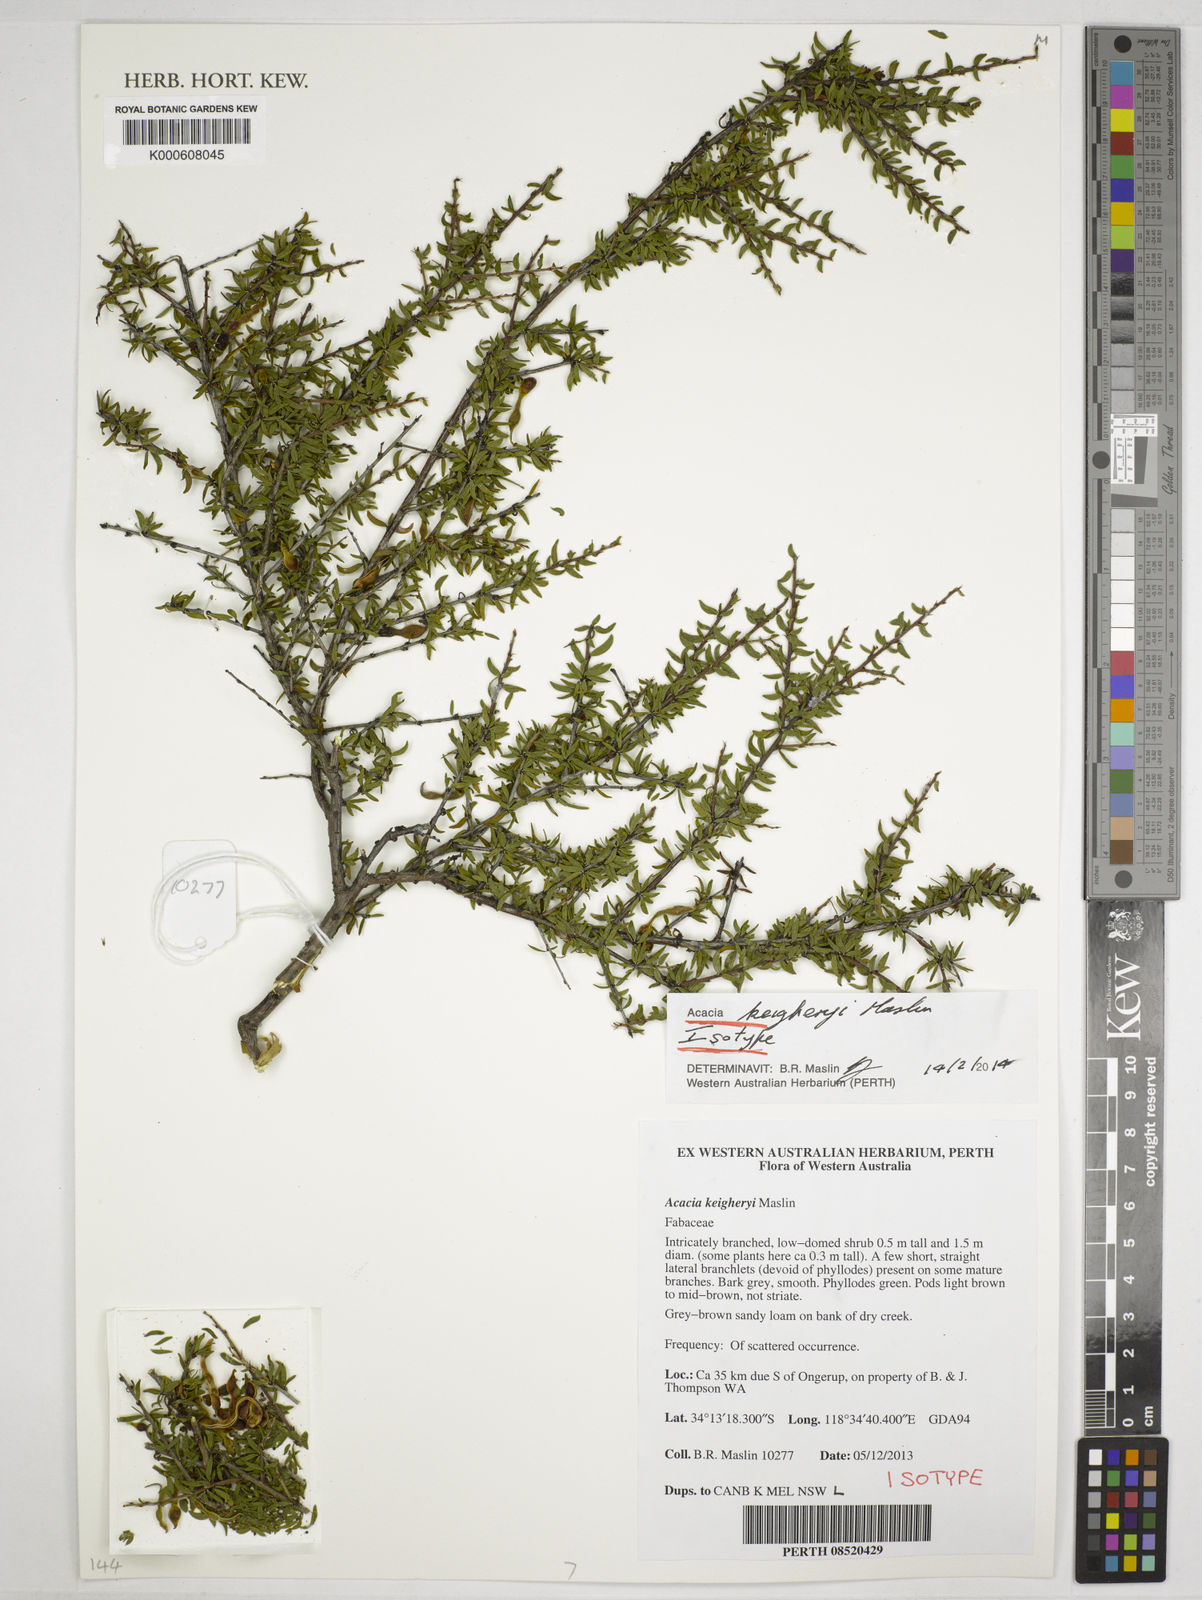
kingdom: Plantae
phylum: Tracheophyta
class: Magnoliopsida
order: Fabales
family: Fabaceae
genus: Acacia
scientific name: Acacia keigheryi
